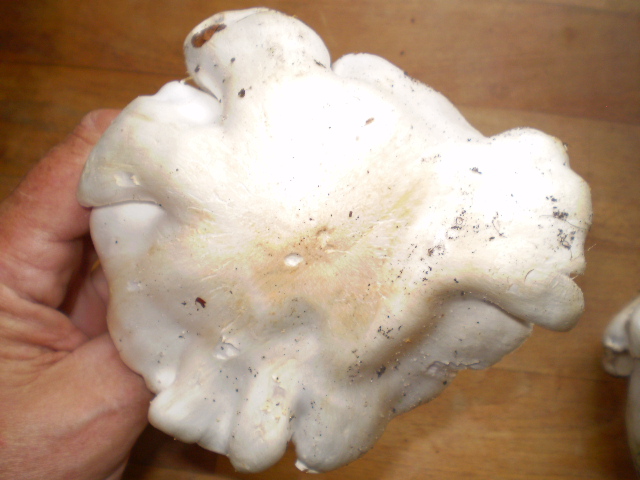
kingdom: Fungi
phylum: Basidiomycota
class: Agaricomycetes
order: Agaricales
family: Tricholomataceae
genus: Tricholoma
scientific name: Tricholoma columbetta
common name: silke-ridderhat
